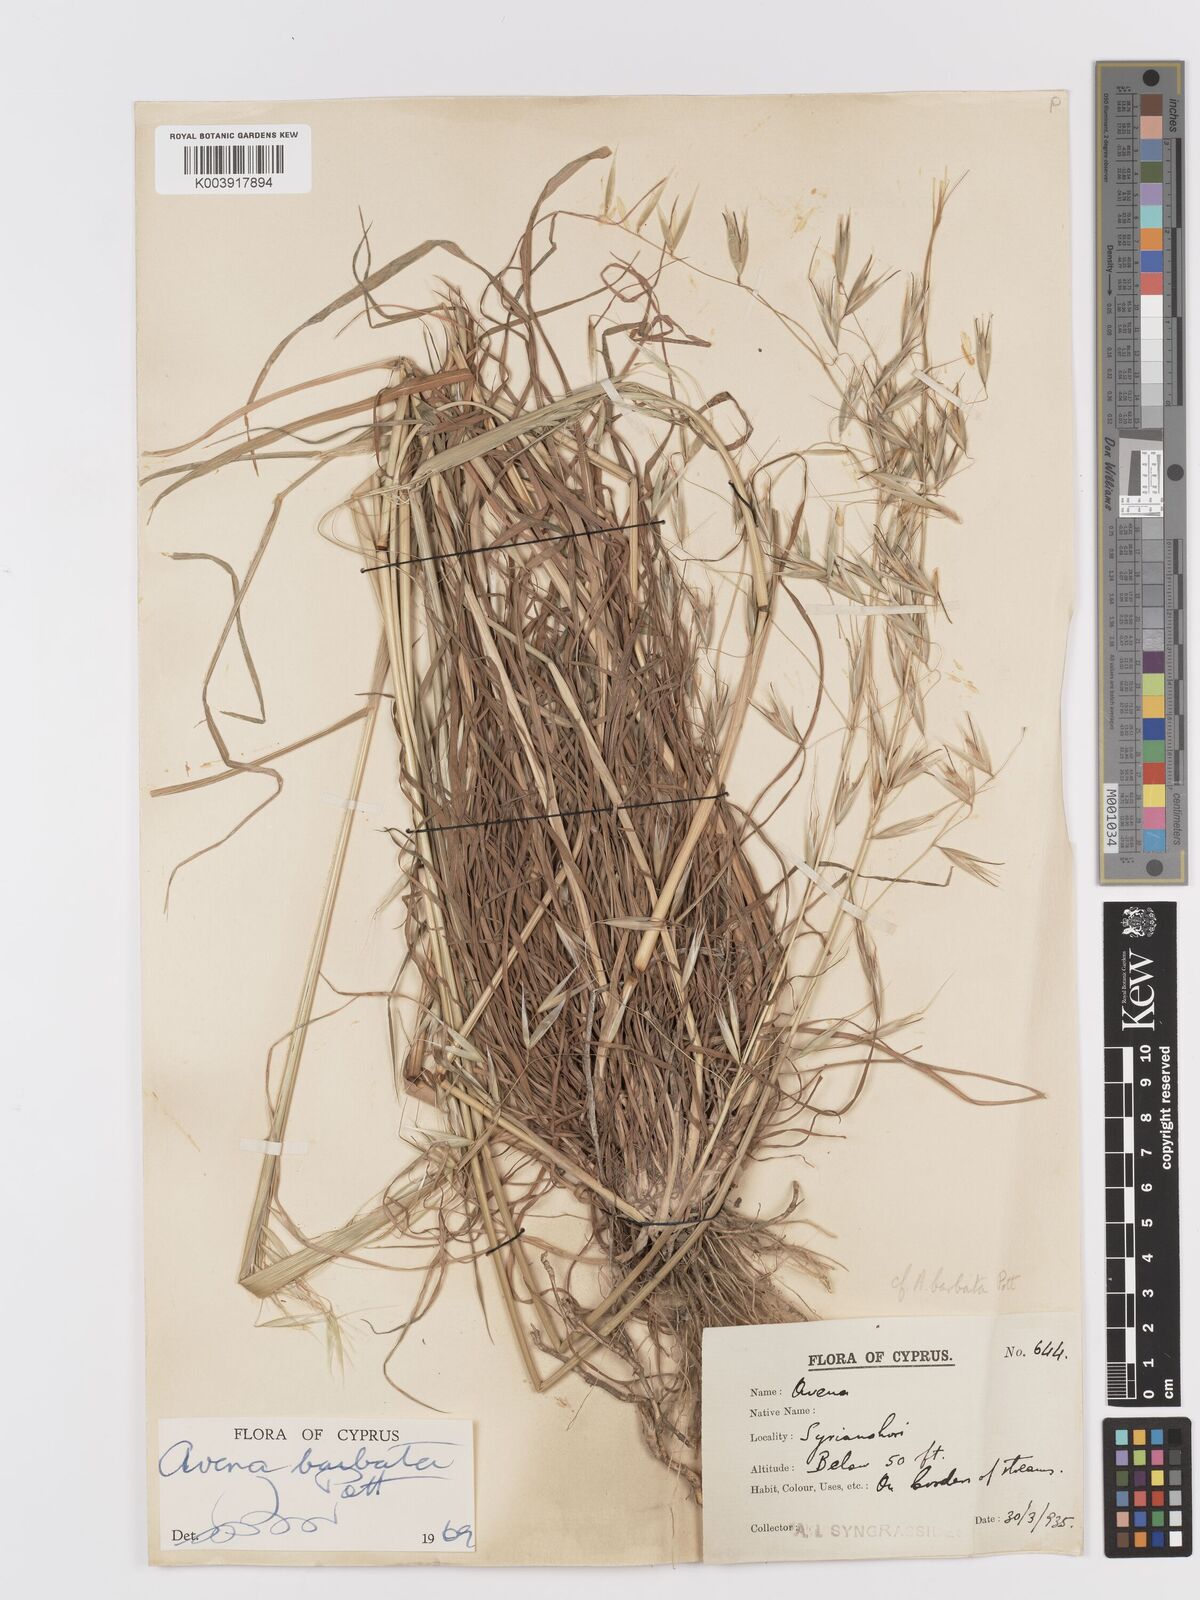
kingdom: Plantae
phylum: Tracheophyta
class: Liliopsida
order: Poales
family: Poaceae
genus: Avena
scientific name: Avena
